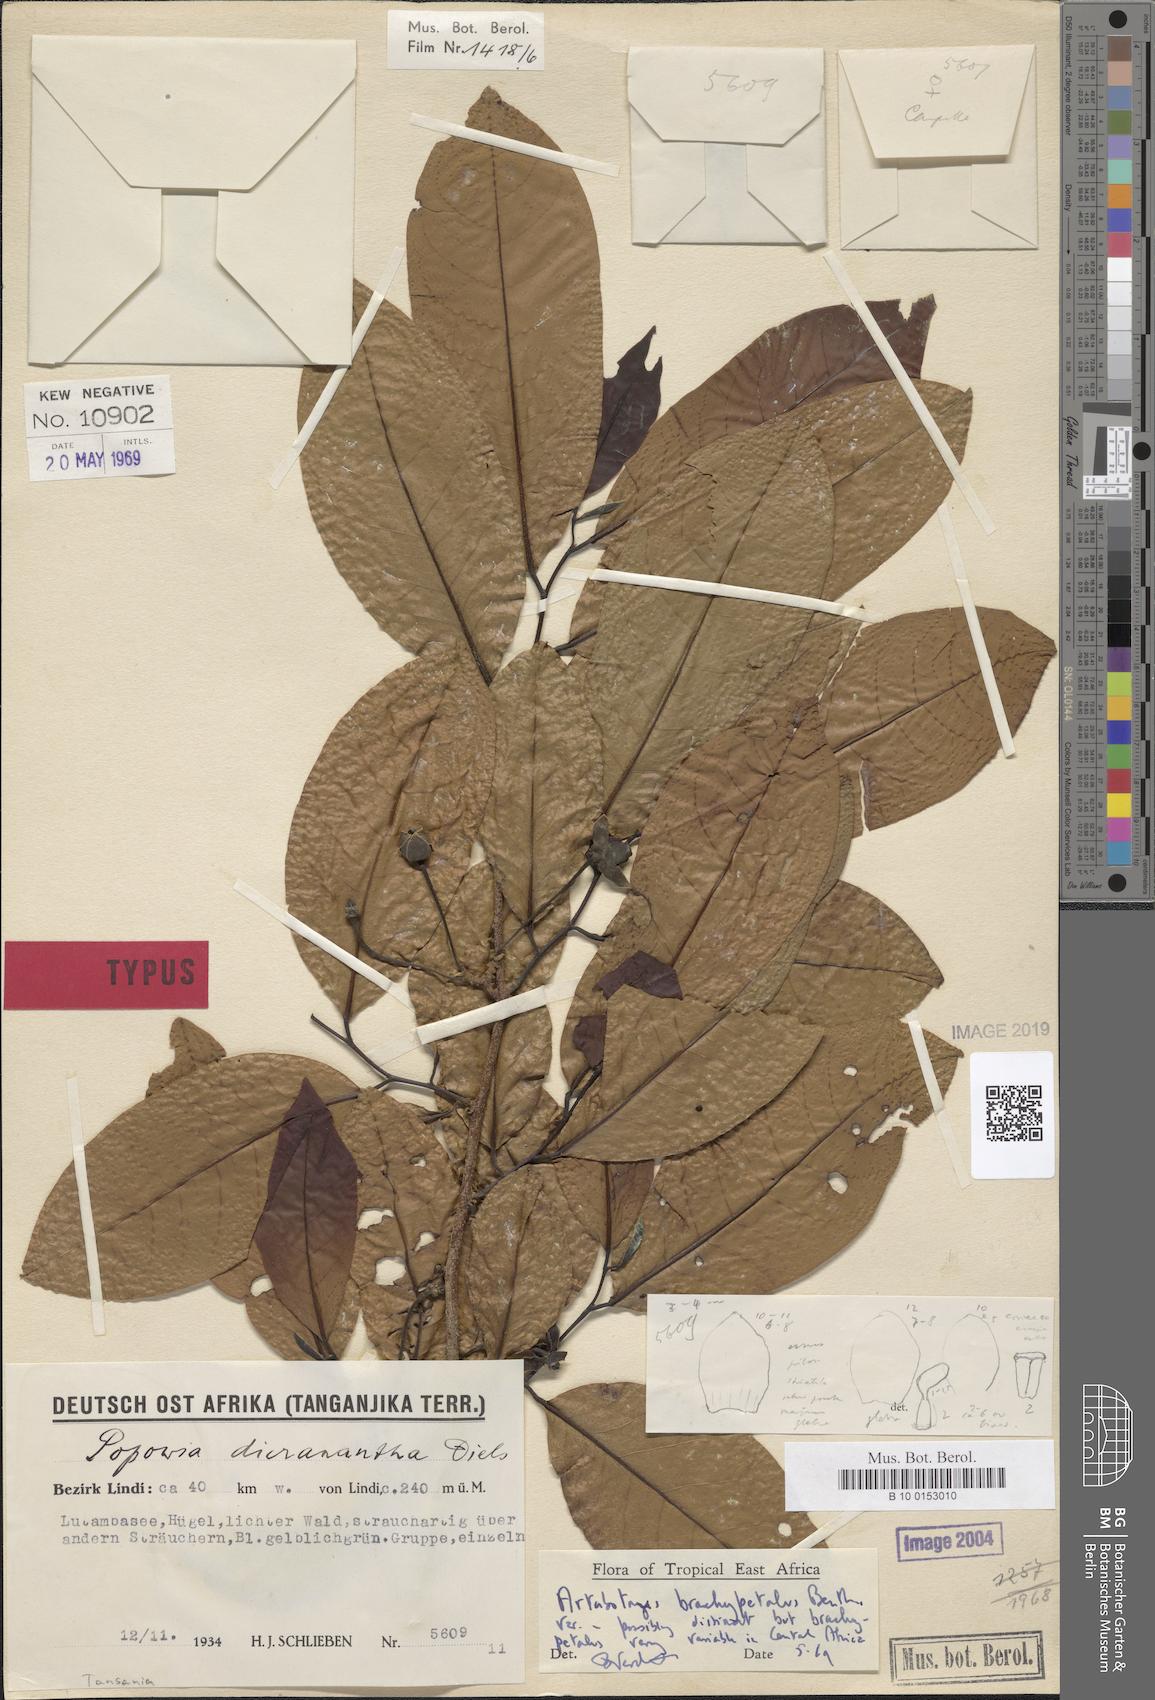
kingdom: Plantae
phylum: Tracheophyta
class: Magnoliopsida
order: Magnoliales
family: Annonaceae
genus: Artabotrys
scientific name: Artabotrys brachypetalus
